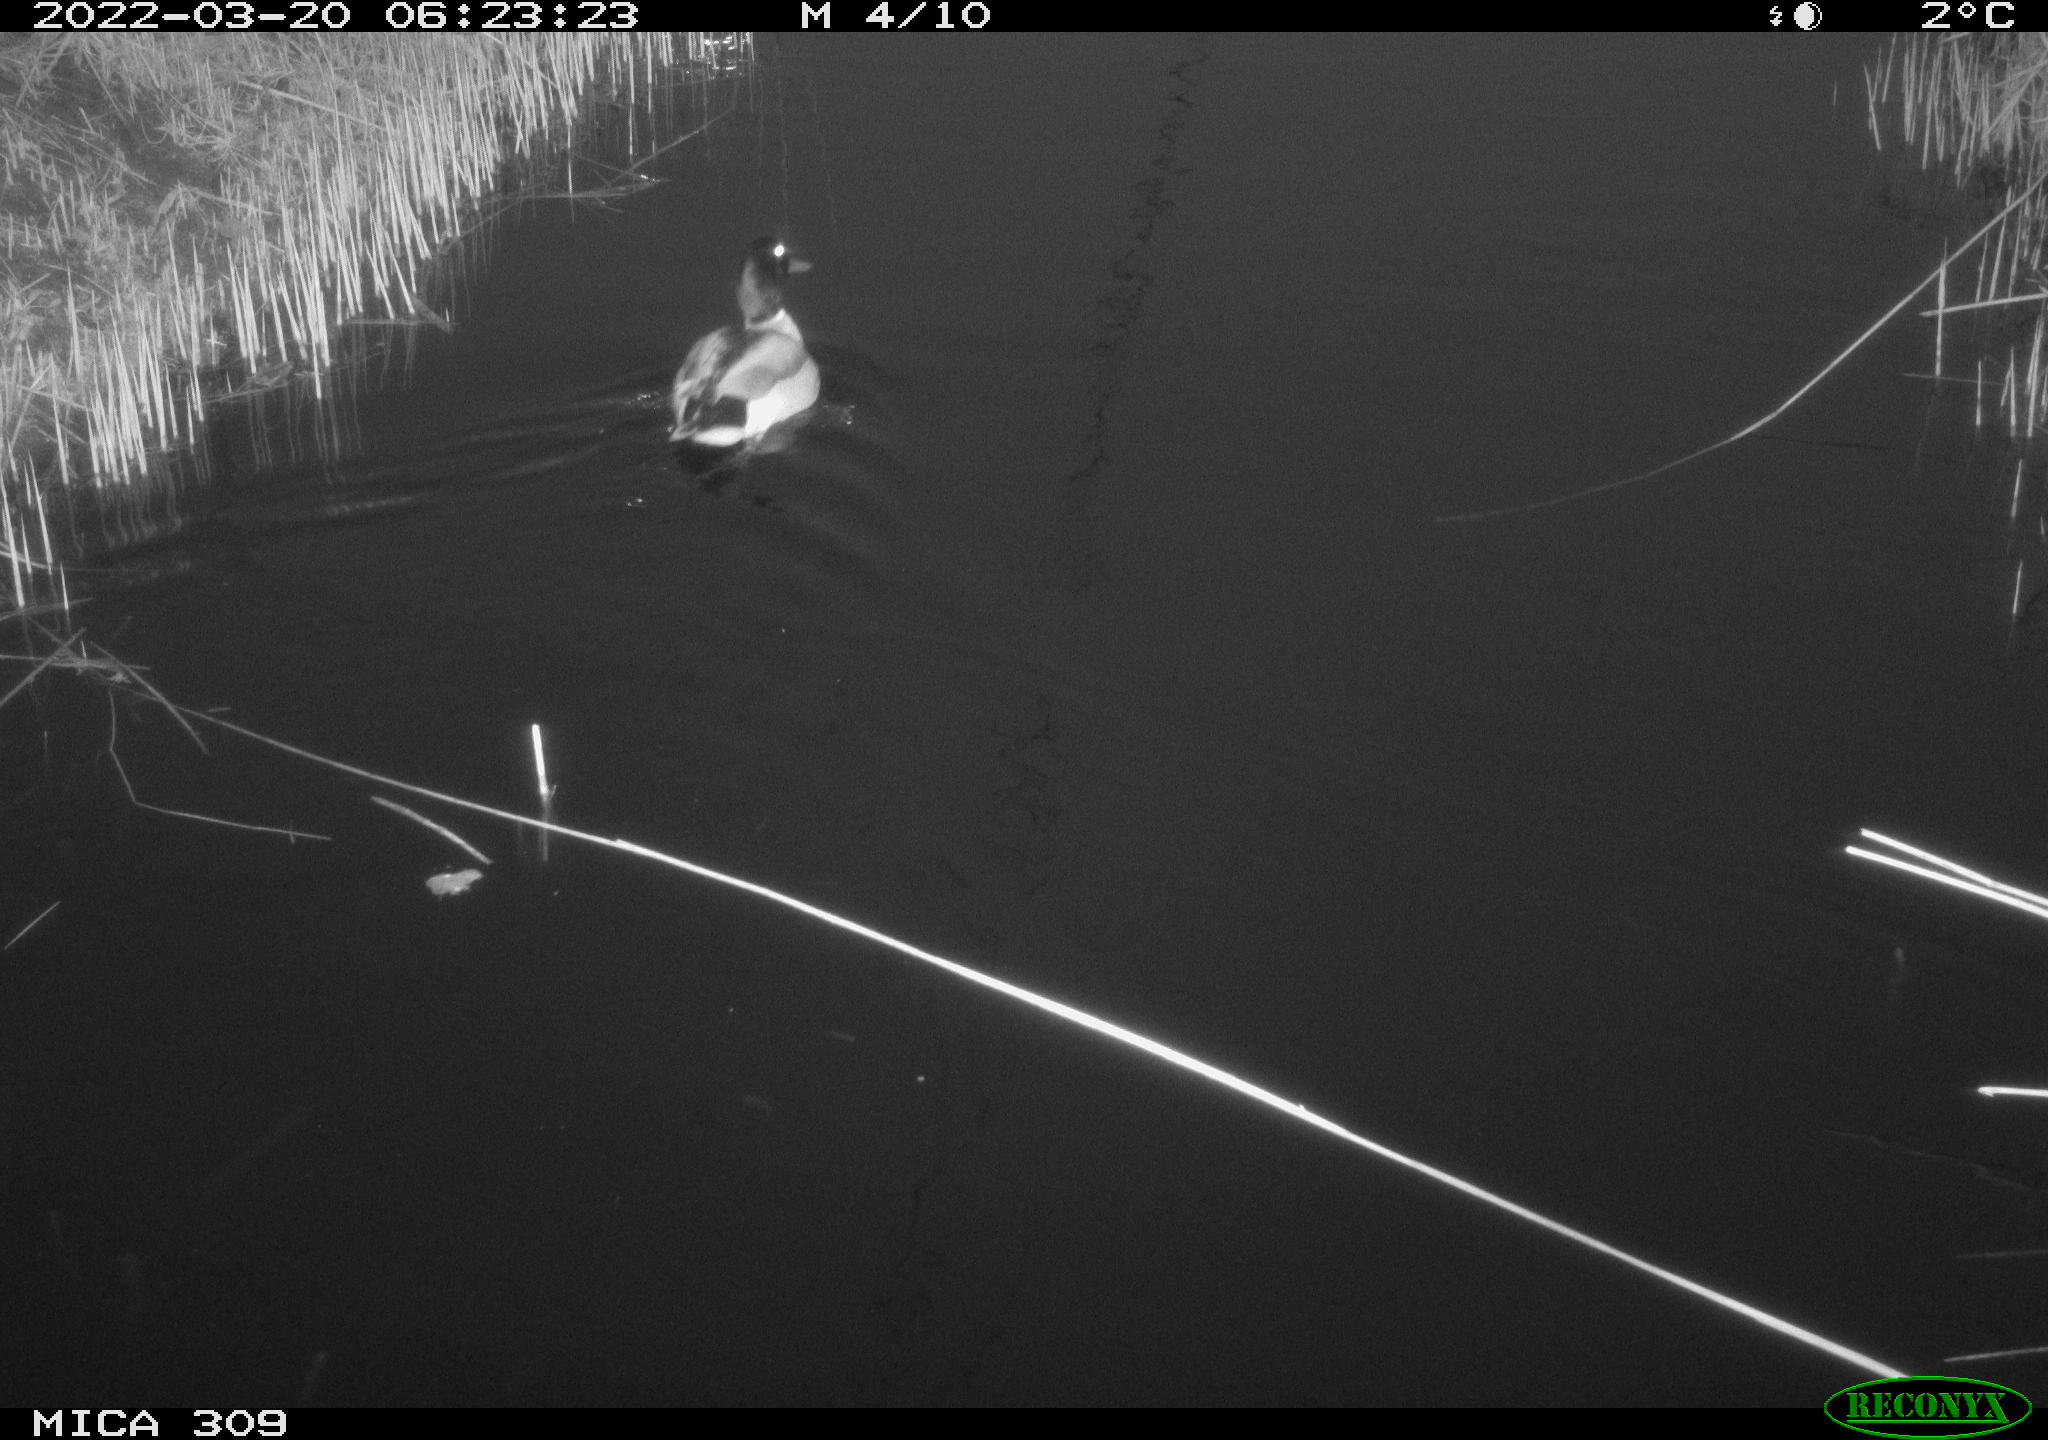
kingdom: Animalia
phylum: Chordata
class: Aves
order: Anseriformes
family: Anatidae
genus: Anas
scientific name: Anas platyrhynchos
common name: Mallard
